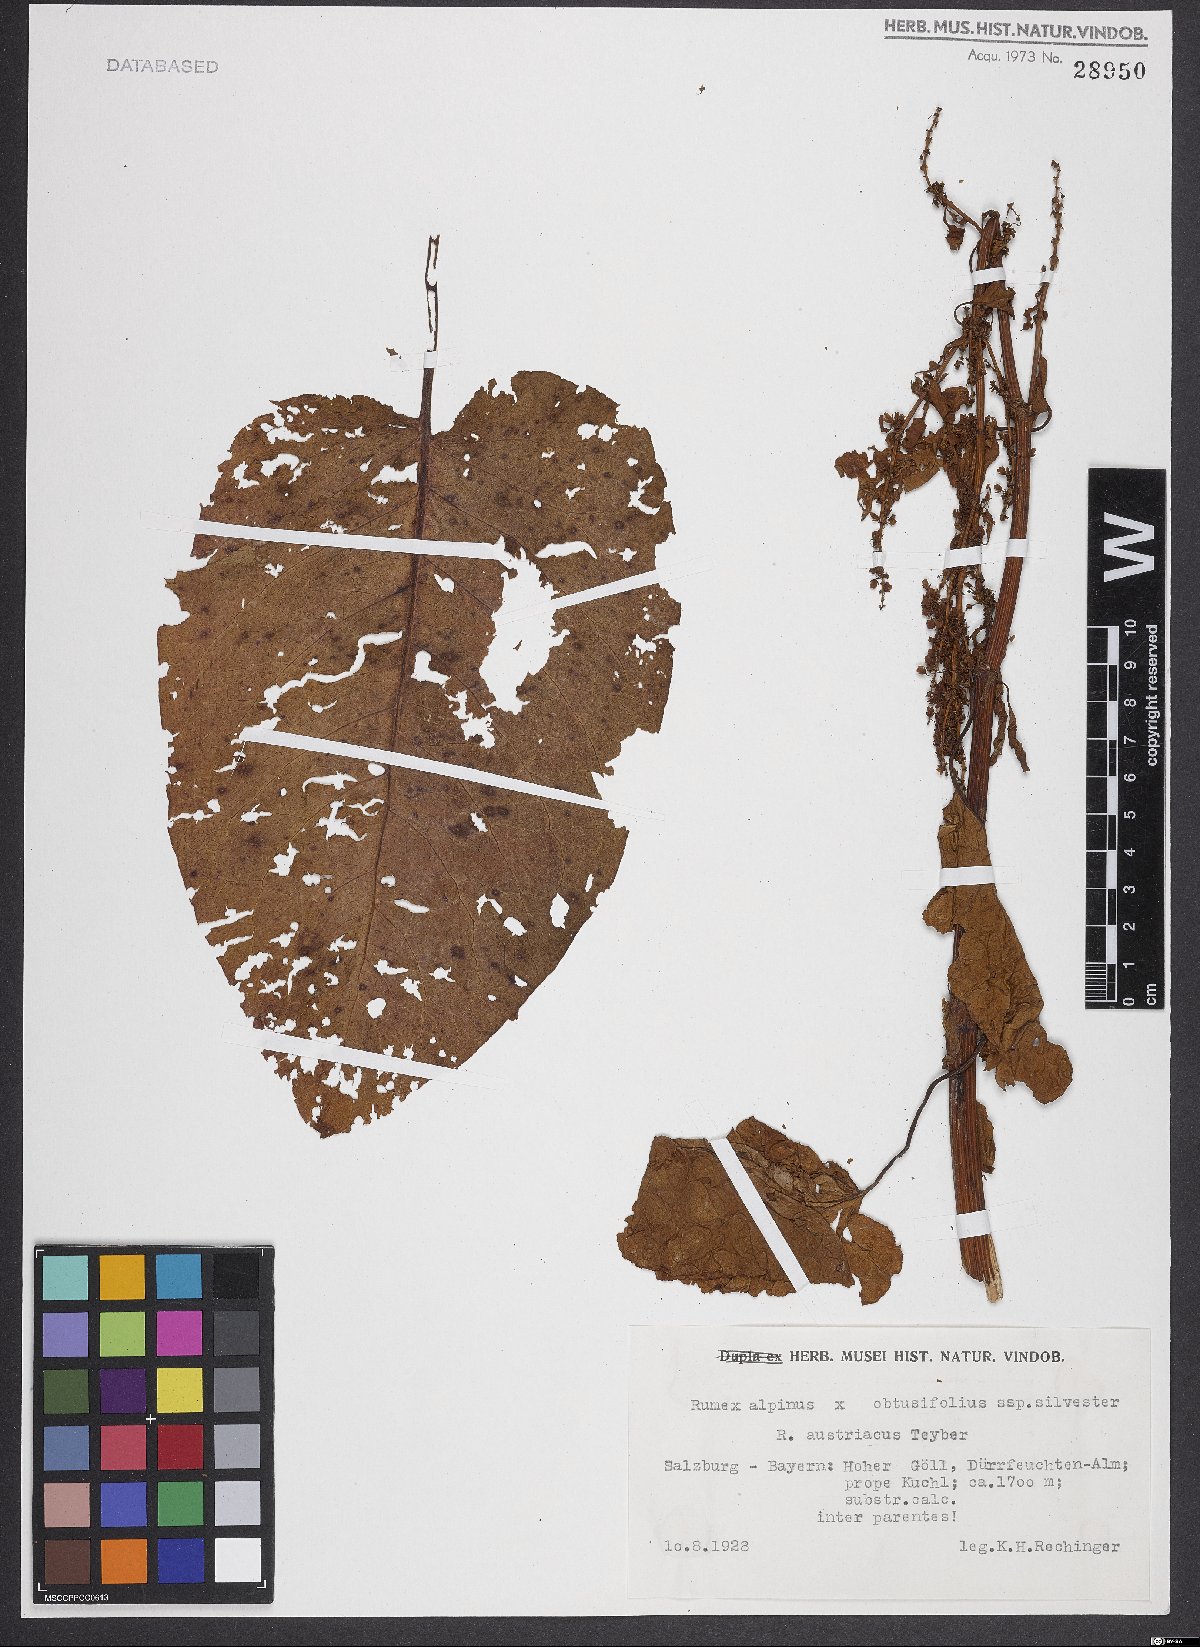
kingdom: Plantae
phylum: Tracheophyta
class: Magnoliopsida
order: Caryophyllales
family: Polygonaceae
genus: Rumex
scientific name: Rumex alpinus
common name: Alpine dock
